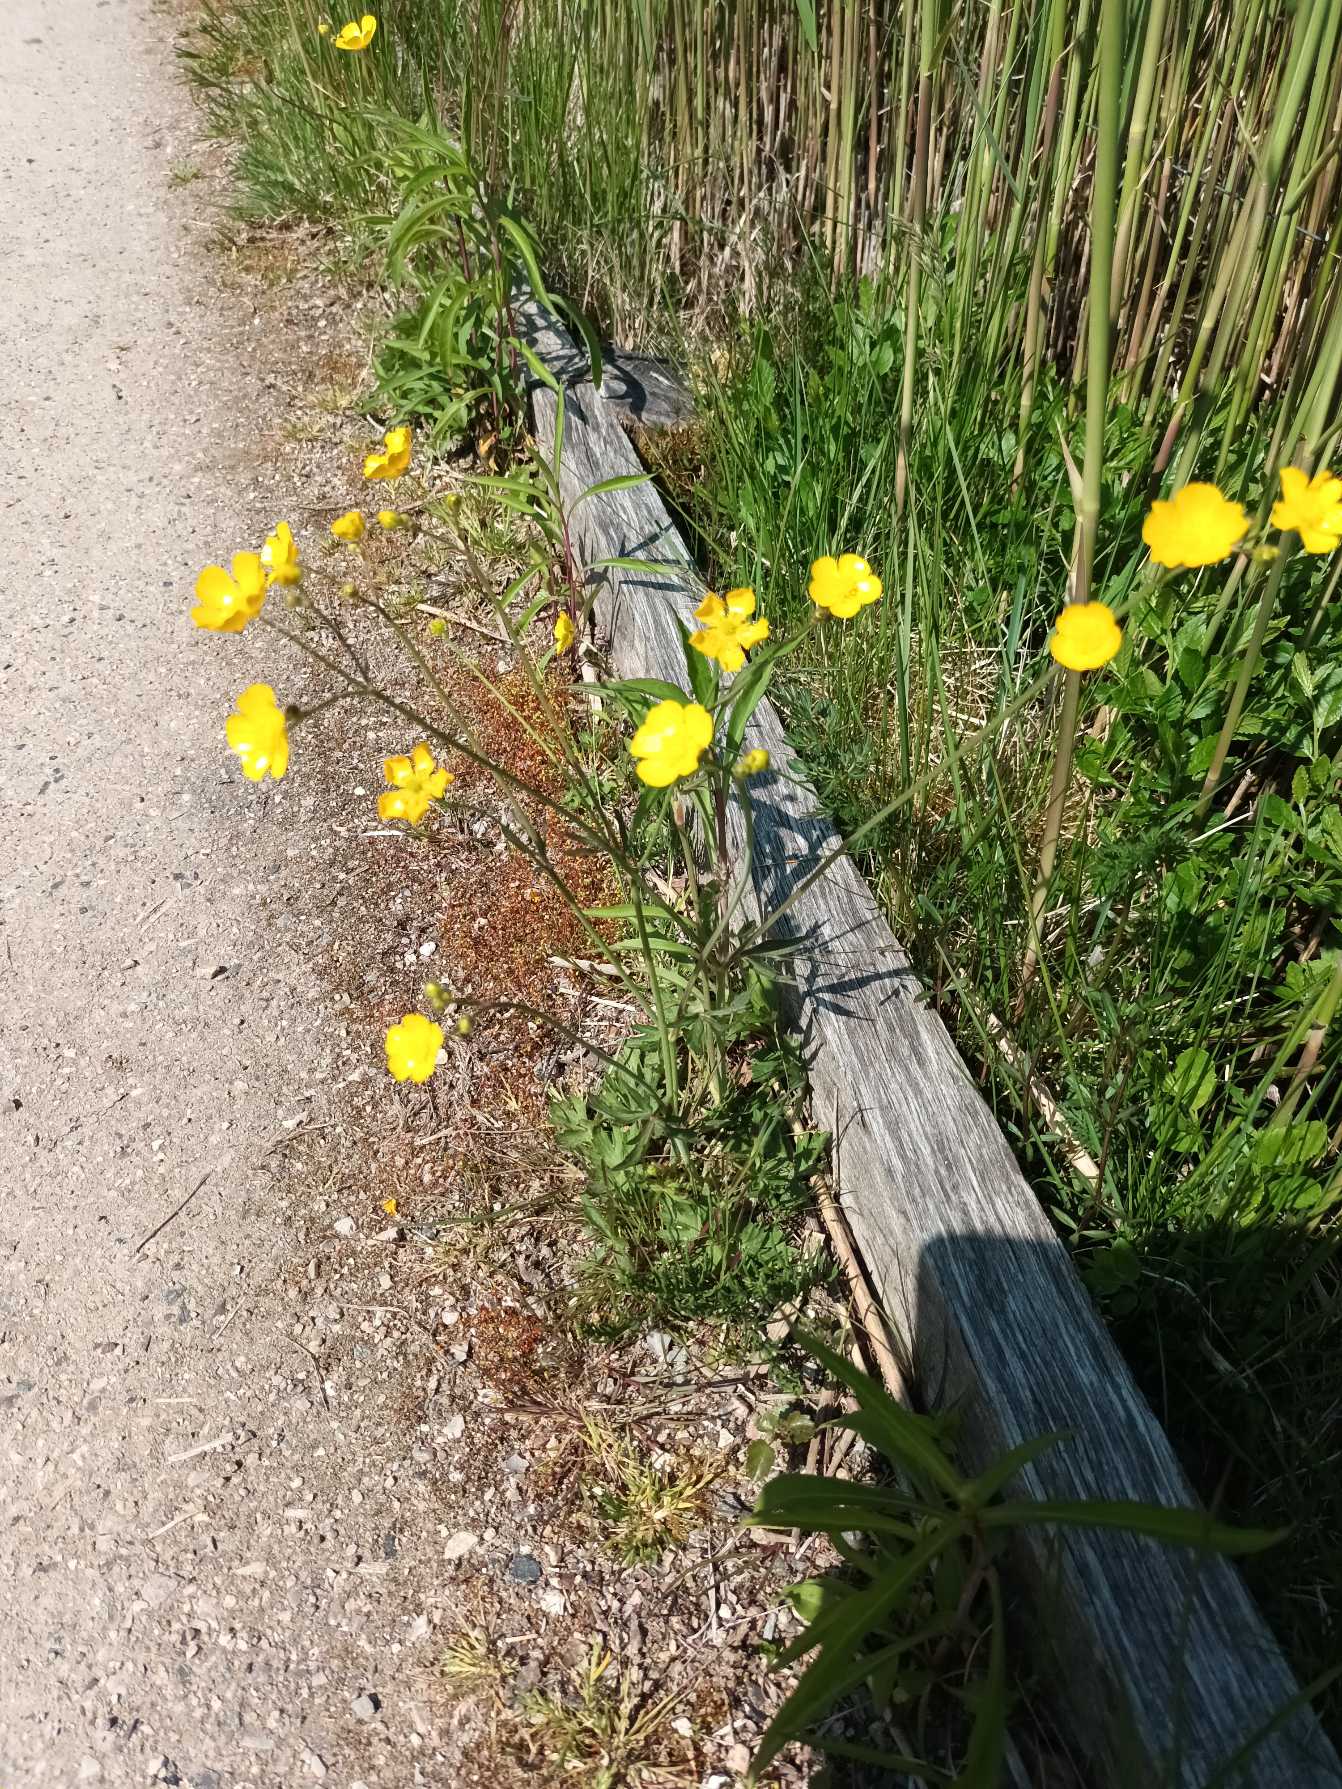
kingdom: Plantae
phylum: Tracheophyta
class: Magnoliopsida
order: Ranunculales
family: Ranunculaceae
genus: Ranunculus
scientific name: Ranunculus acris
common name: Bidende ranunkel
